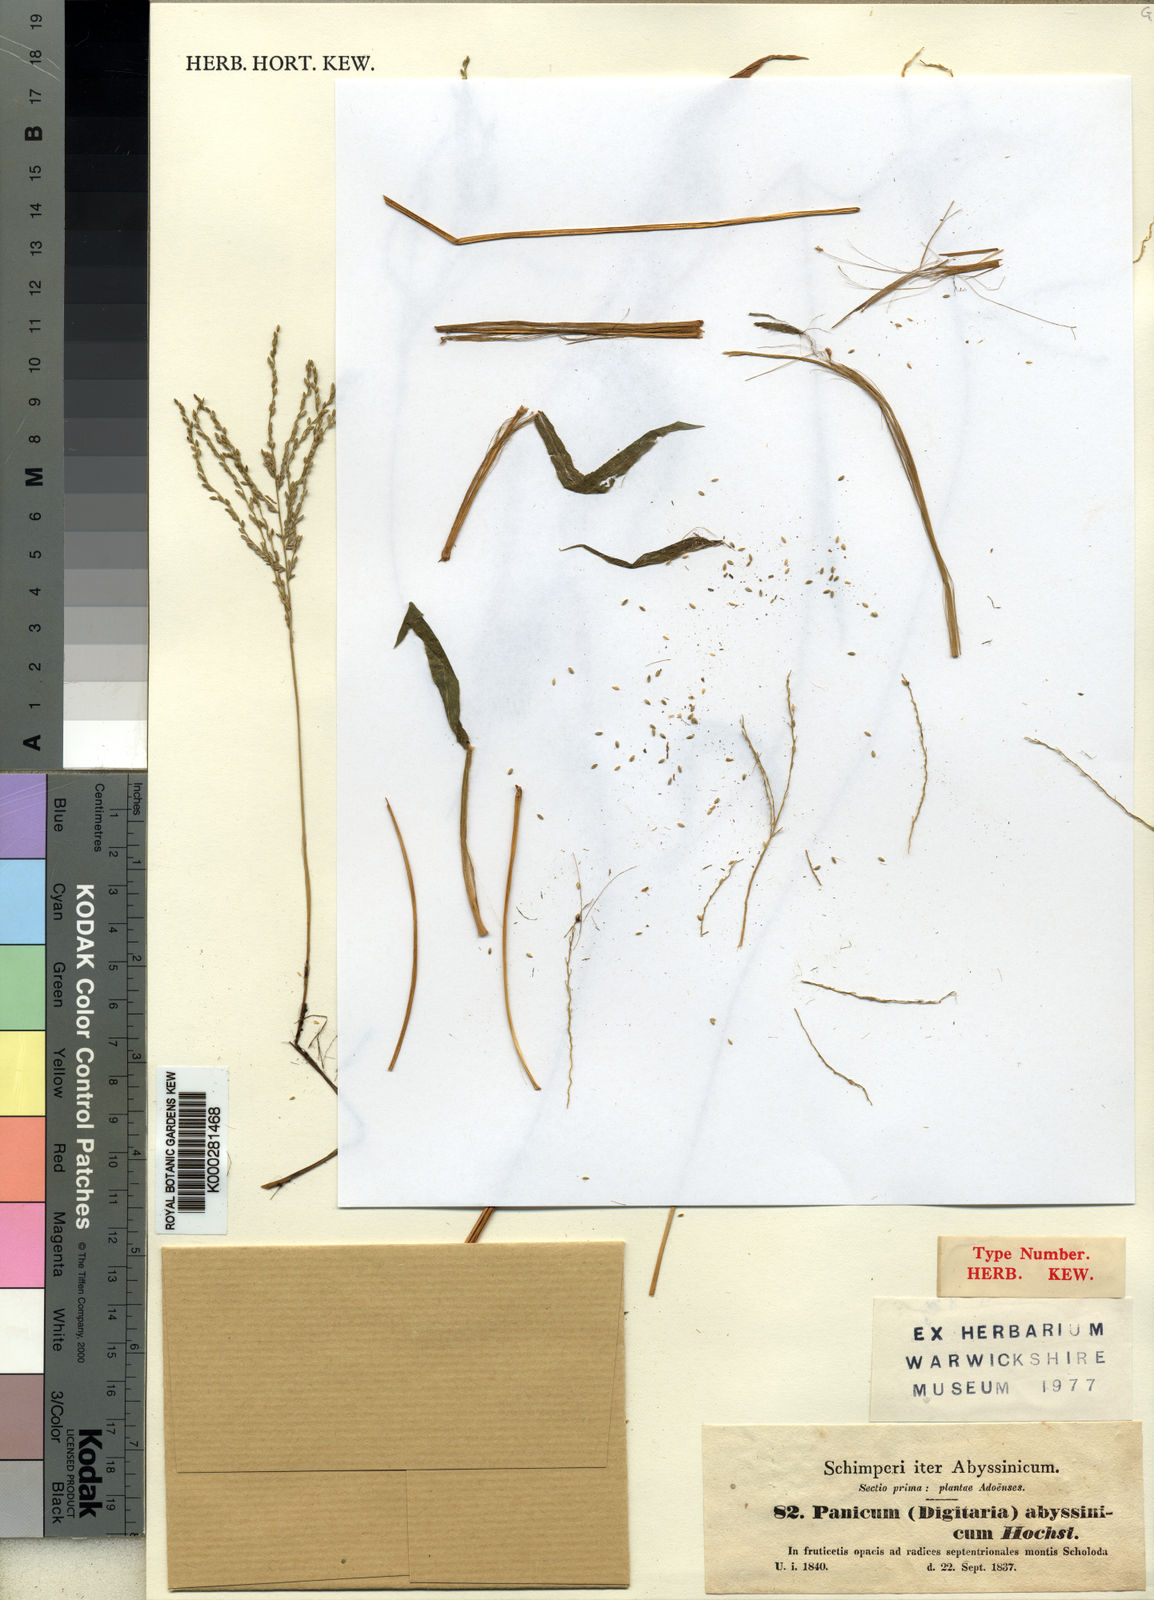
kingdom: Plantae
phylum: Tracheophyta
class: Liliopsida
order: Poales
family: Poaceae
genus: Digitaria
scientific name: Digitaria abyssinica
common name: African couchgrass
